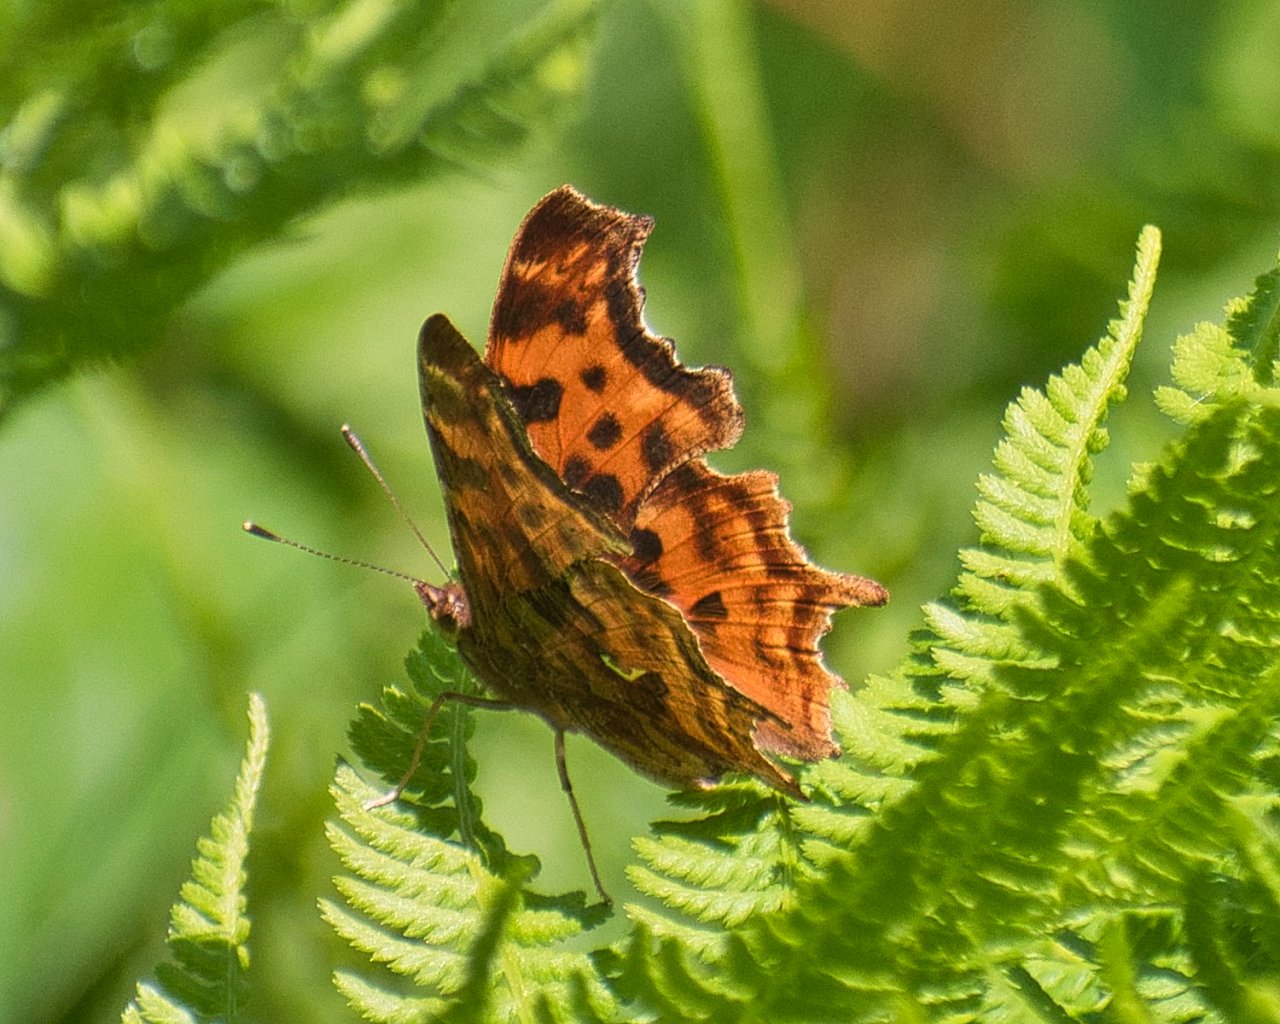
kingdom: Animalia
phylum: Arthropoda
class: Insecta
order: Lepidoptera
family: Nymphalidae
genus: Polygonia
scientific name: Polygonia satyrus
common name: Satyr Comma
